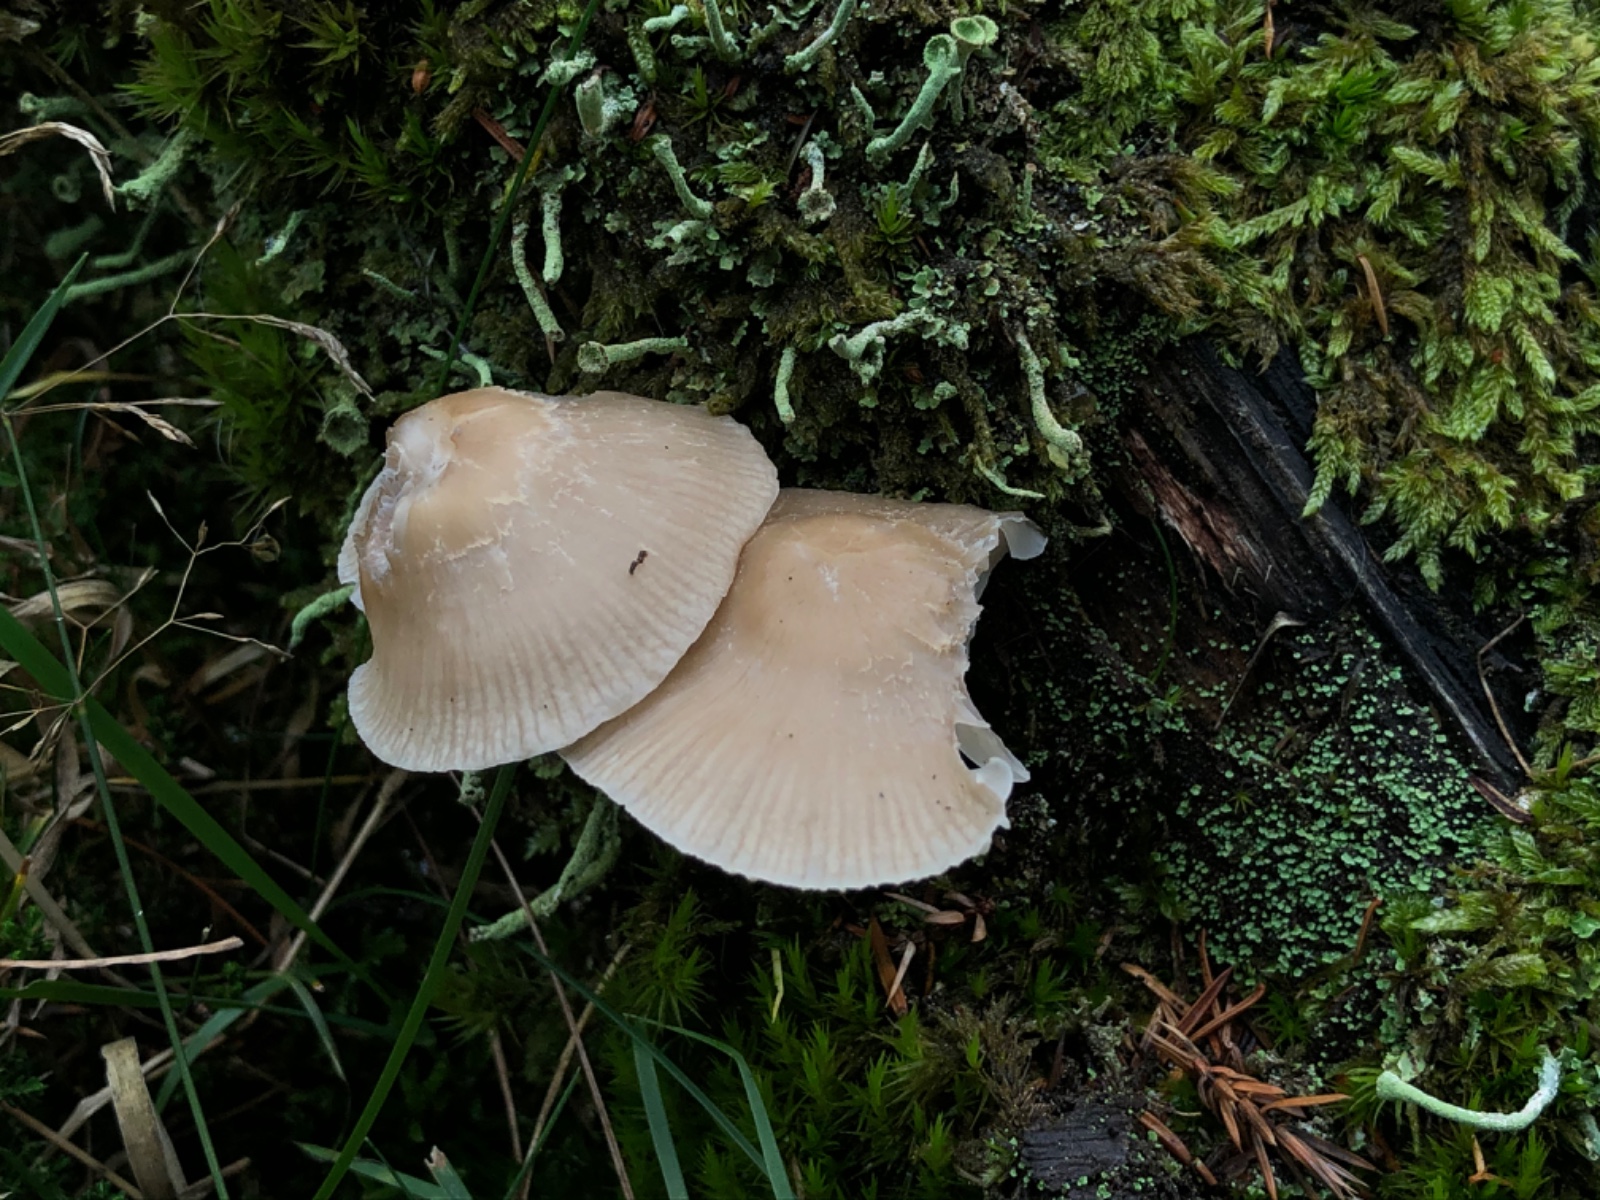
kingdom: Fungi
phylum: Basidiomycota
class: Agaricomycetes
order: Agaricales
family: Mycenaceae
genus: Mycena
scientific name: Mycena galericulata
